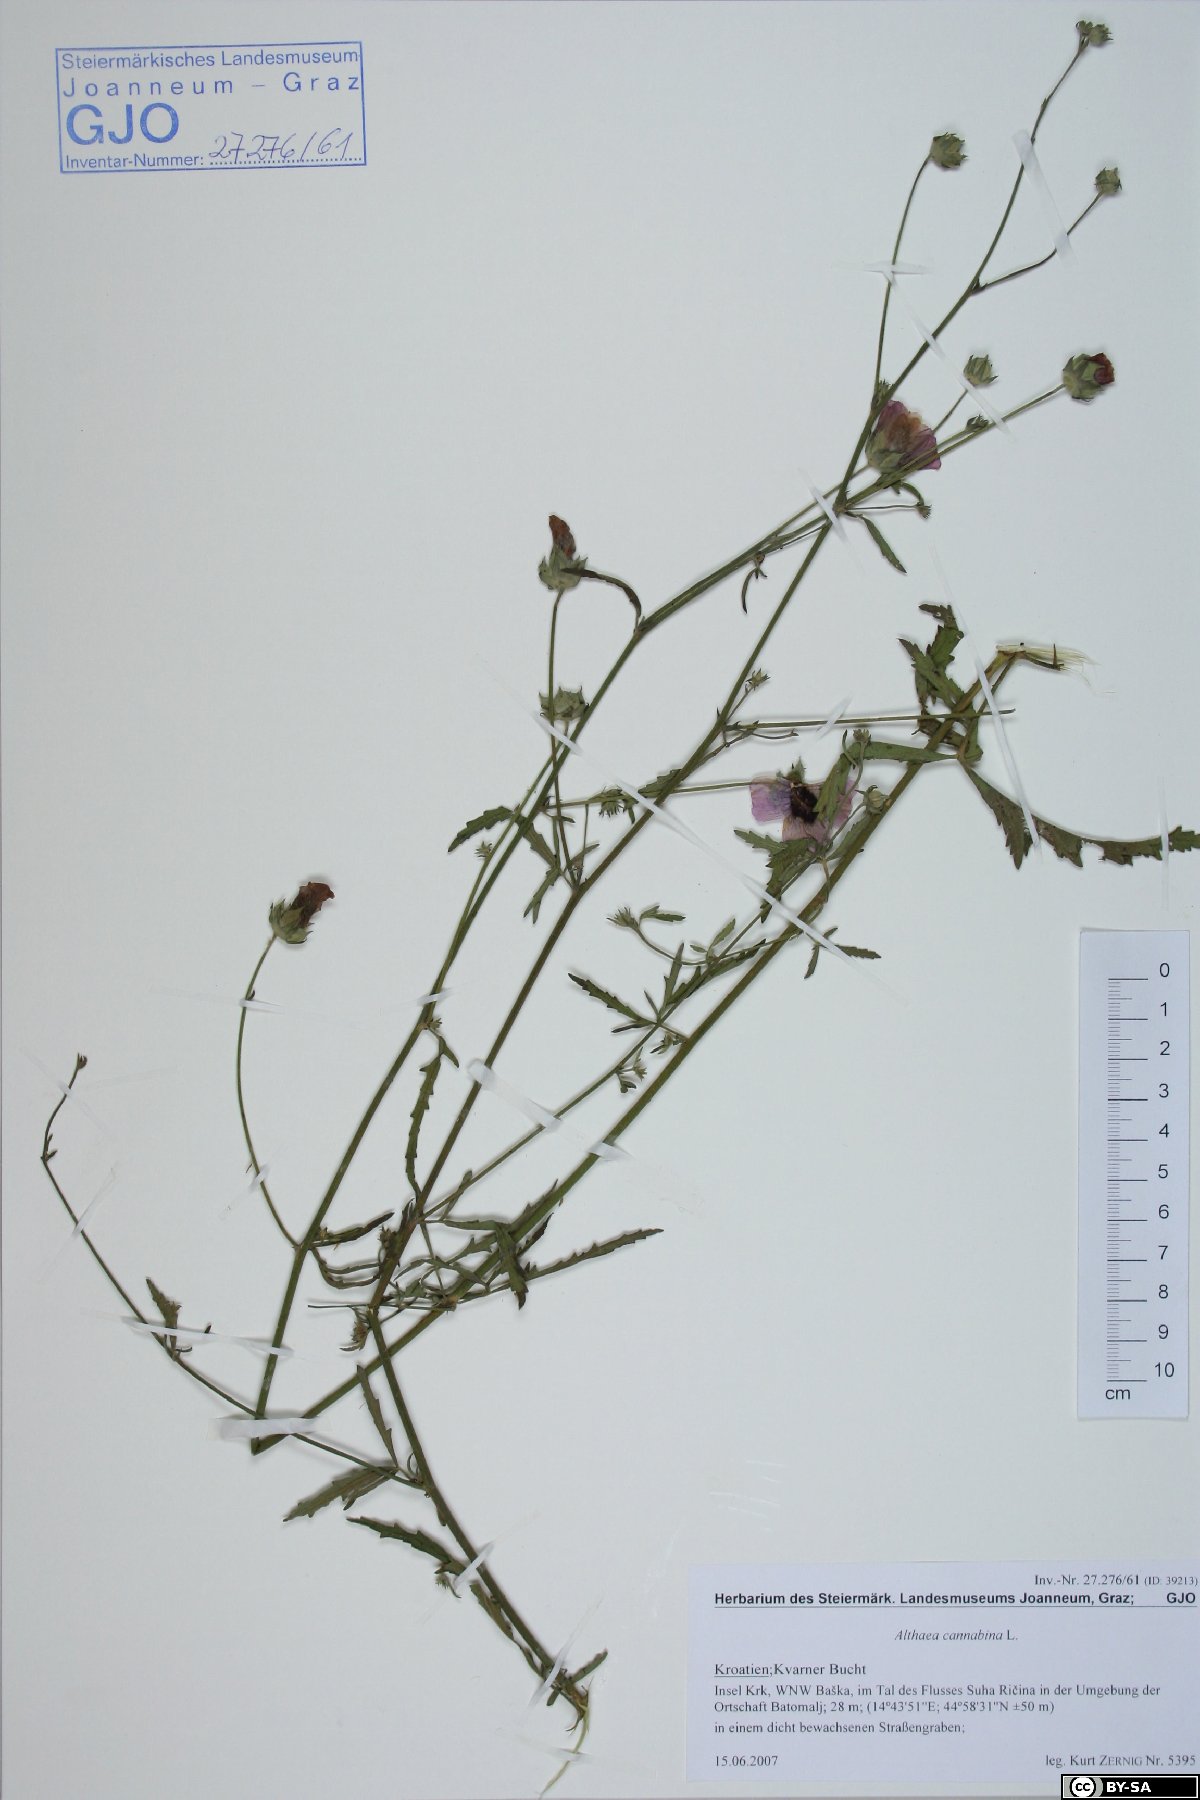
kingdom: Plantae
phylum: Tracheophyta
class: Magnoliopsida
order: Malvales
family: Malvaceae
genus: Althaea
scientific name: Althaea cannabina
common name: Palm-leaf marshmallow
